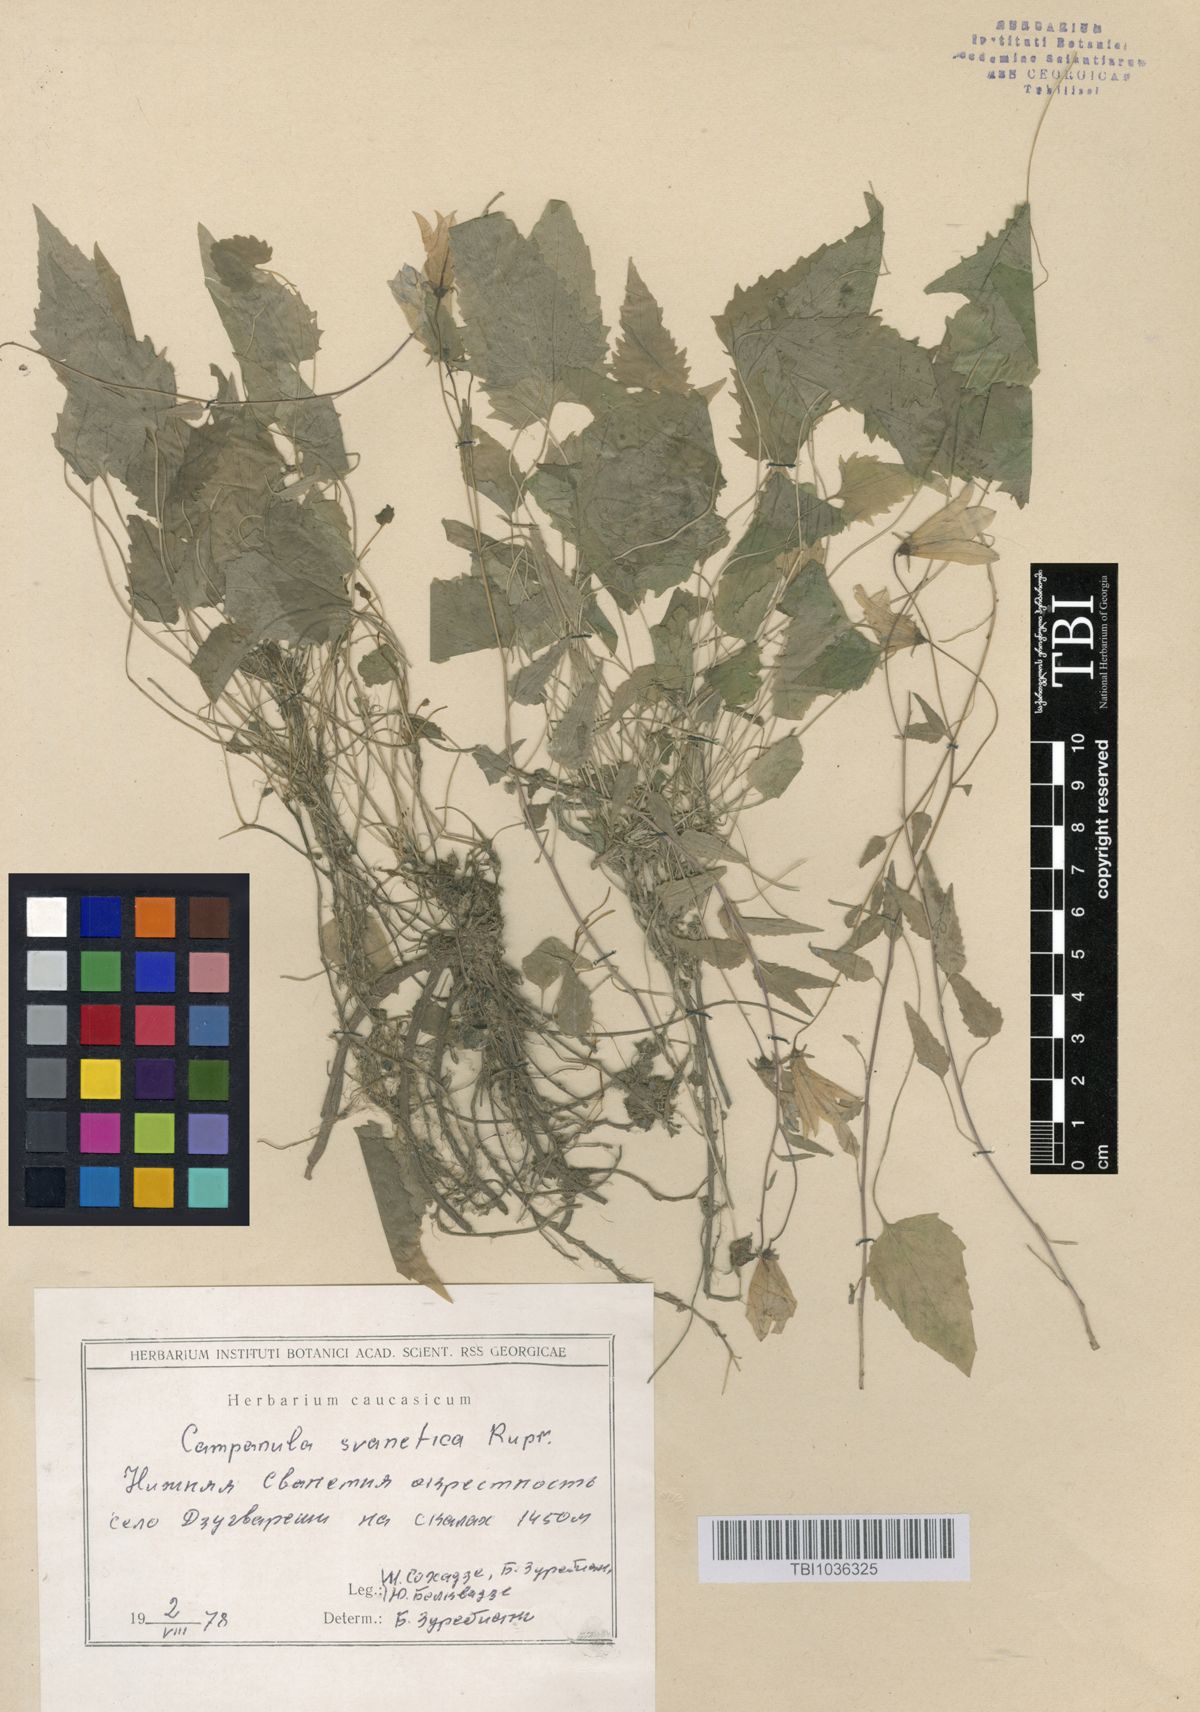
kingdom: Plantae
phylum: Tracheophyta
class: Magnoliopsida
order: Asterales
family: Campanulaceae
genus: Campanula
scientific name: Campanula suanetica
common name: Svanetian bellflower
